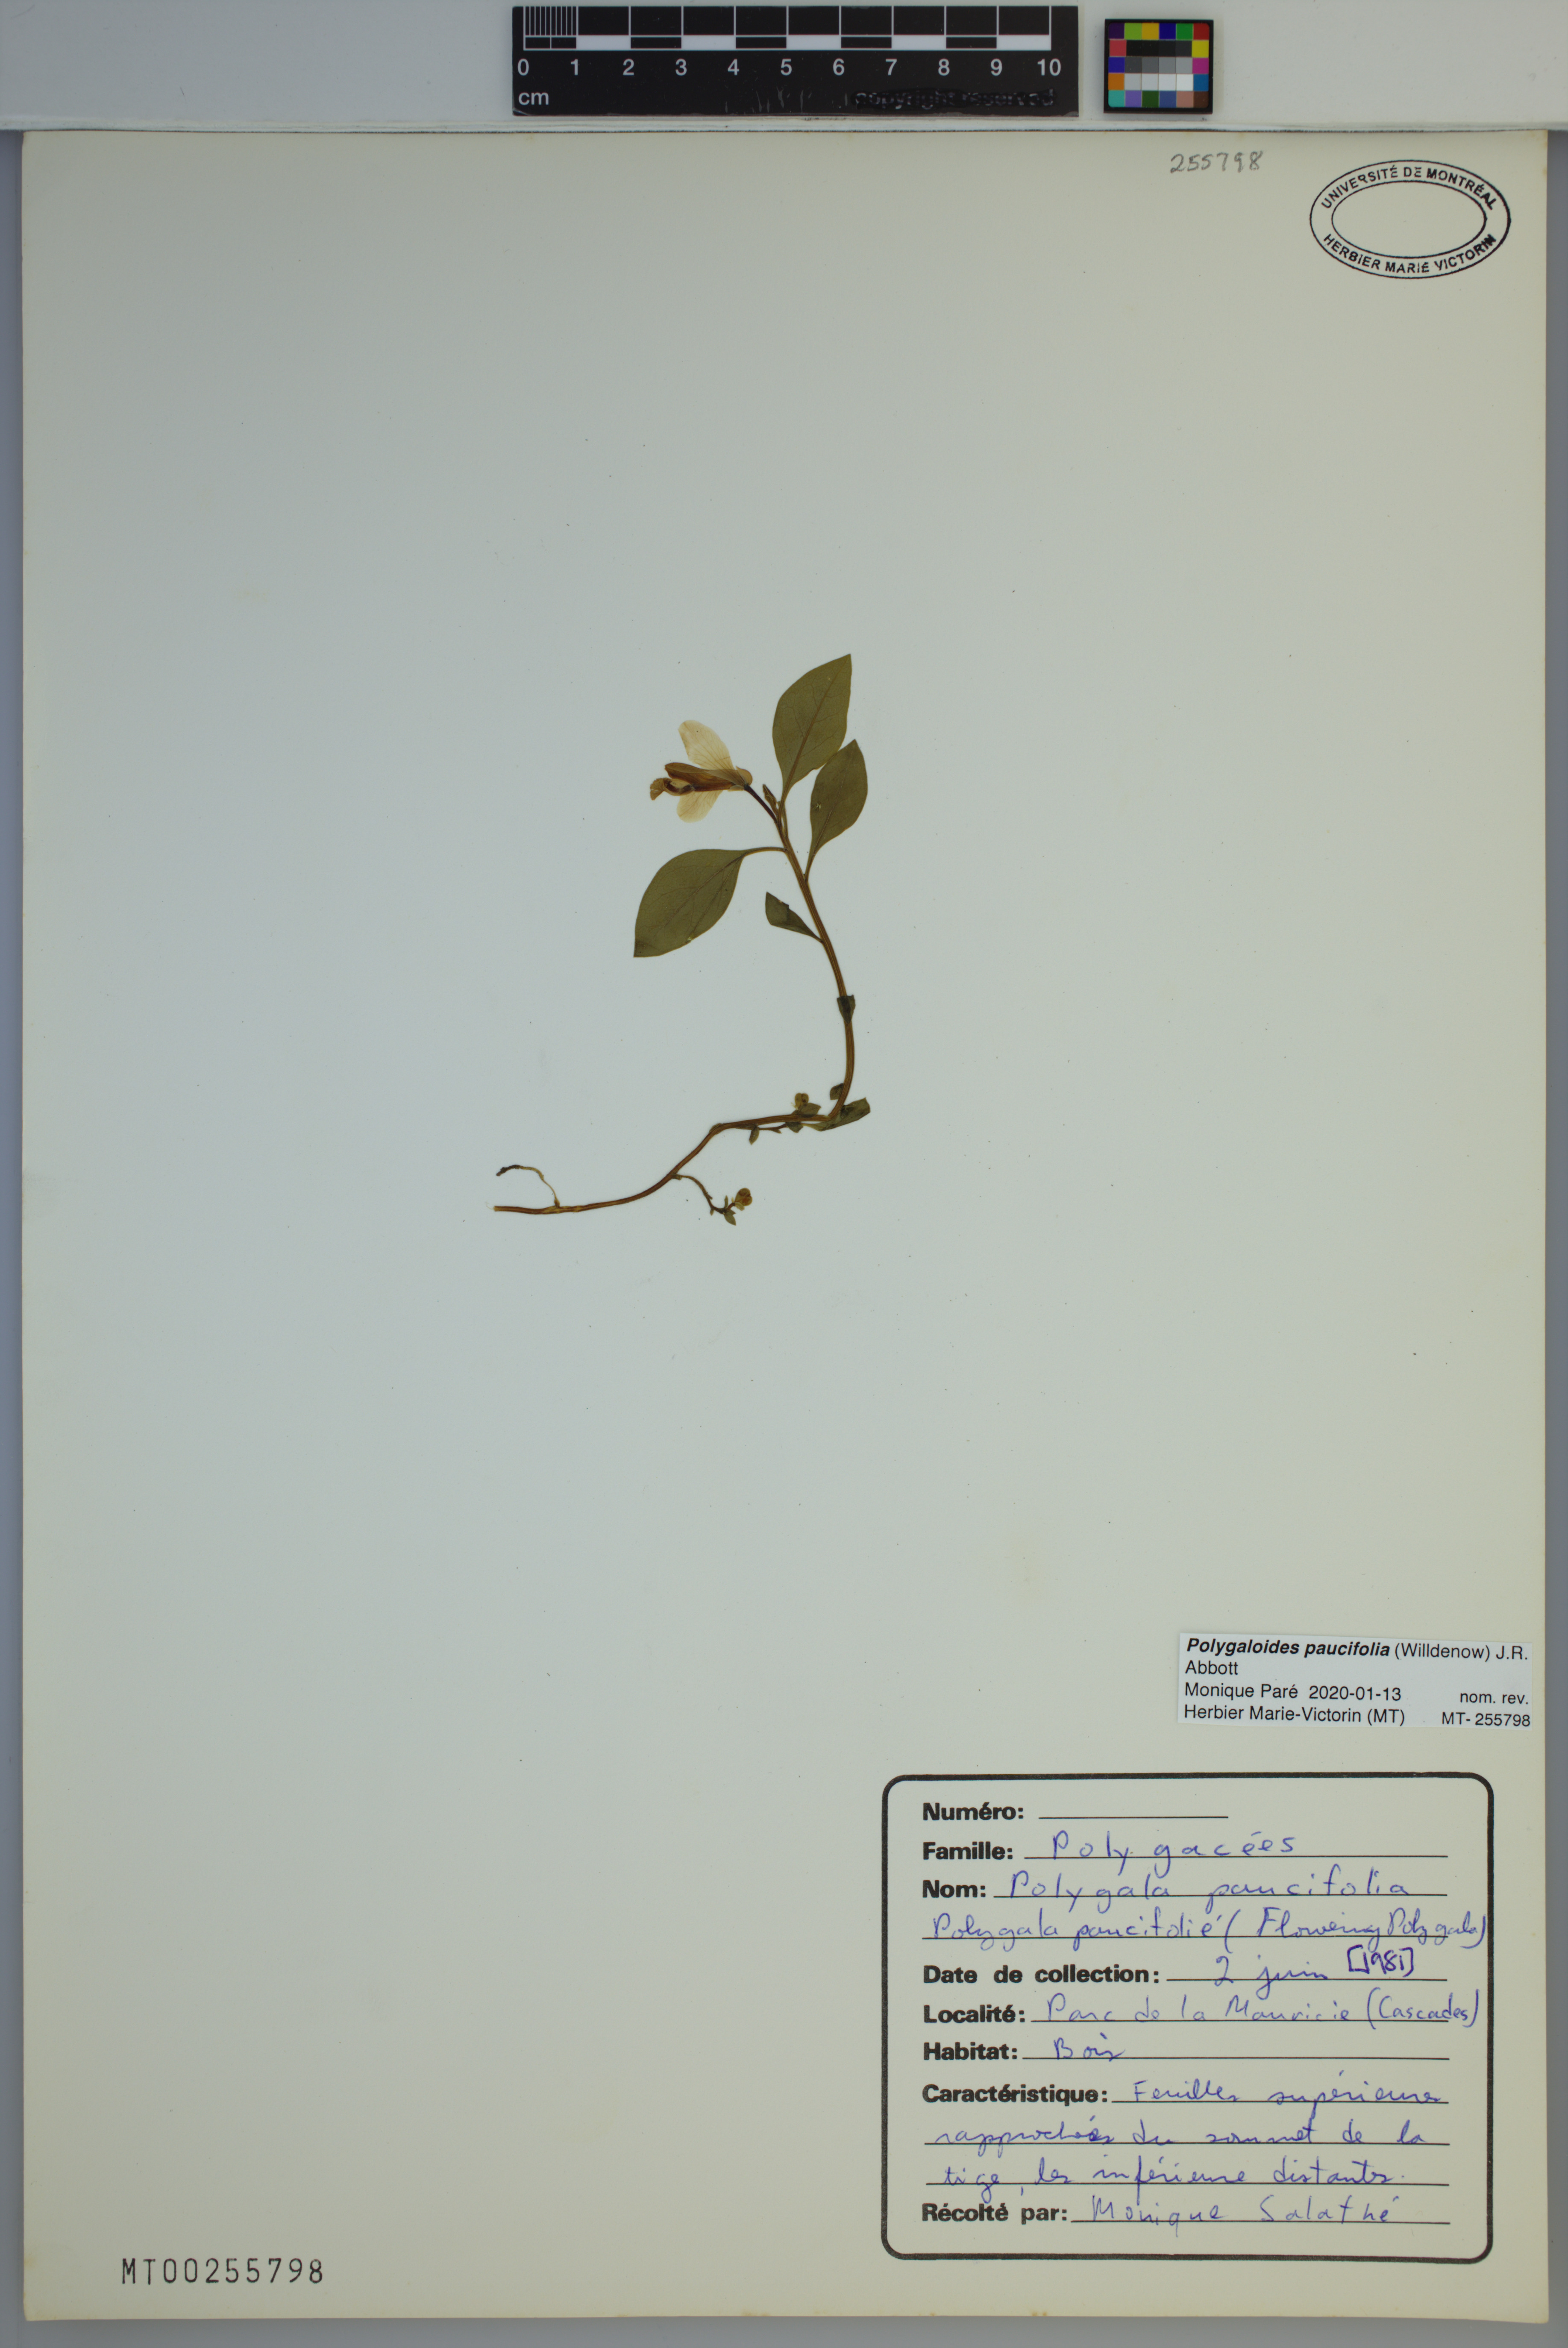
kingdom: Plantae
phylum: Tracheophyta
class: Magnoliopsida
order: Fabales
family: Polygalaceae
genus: Polygaloides
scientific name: Polygaloides paucifolia
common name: Bird-on-the-wing
